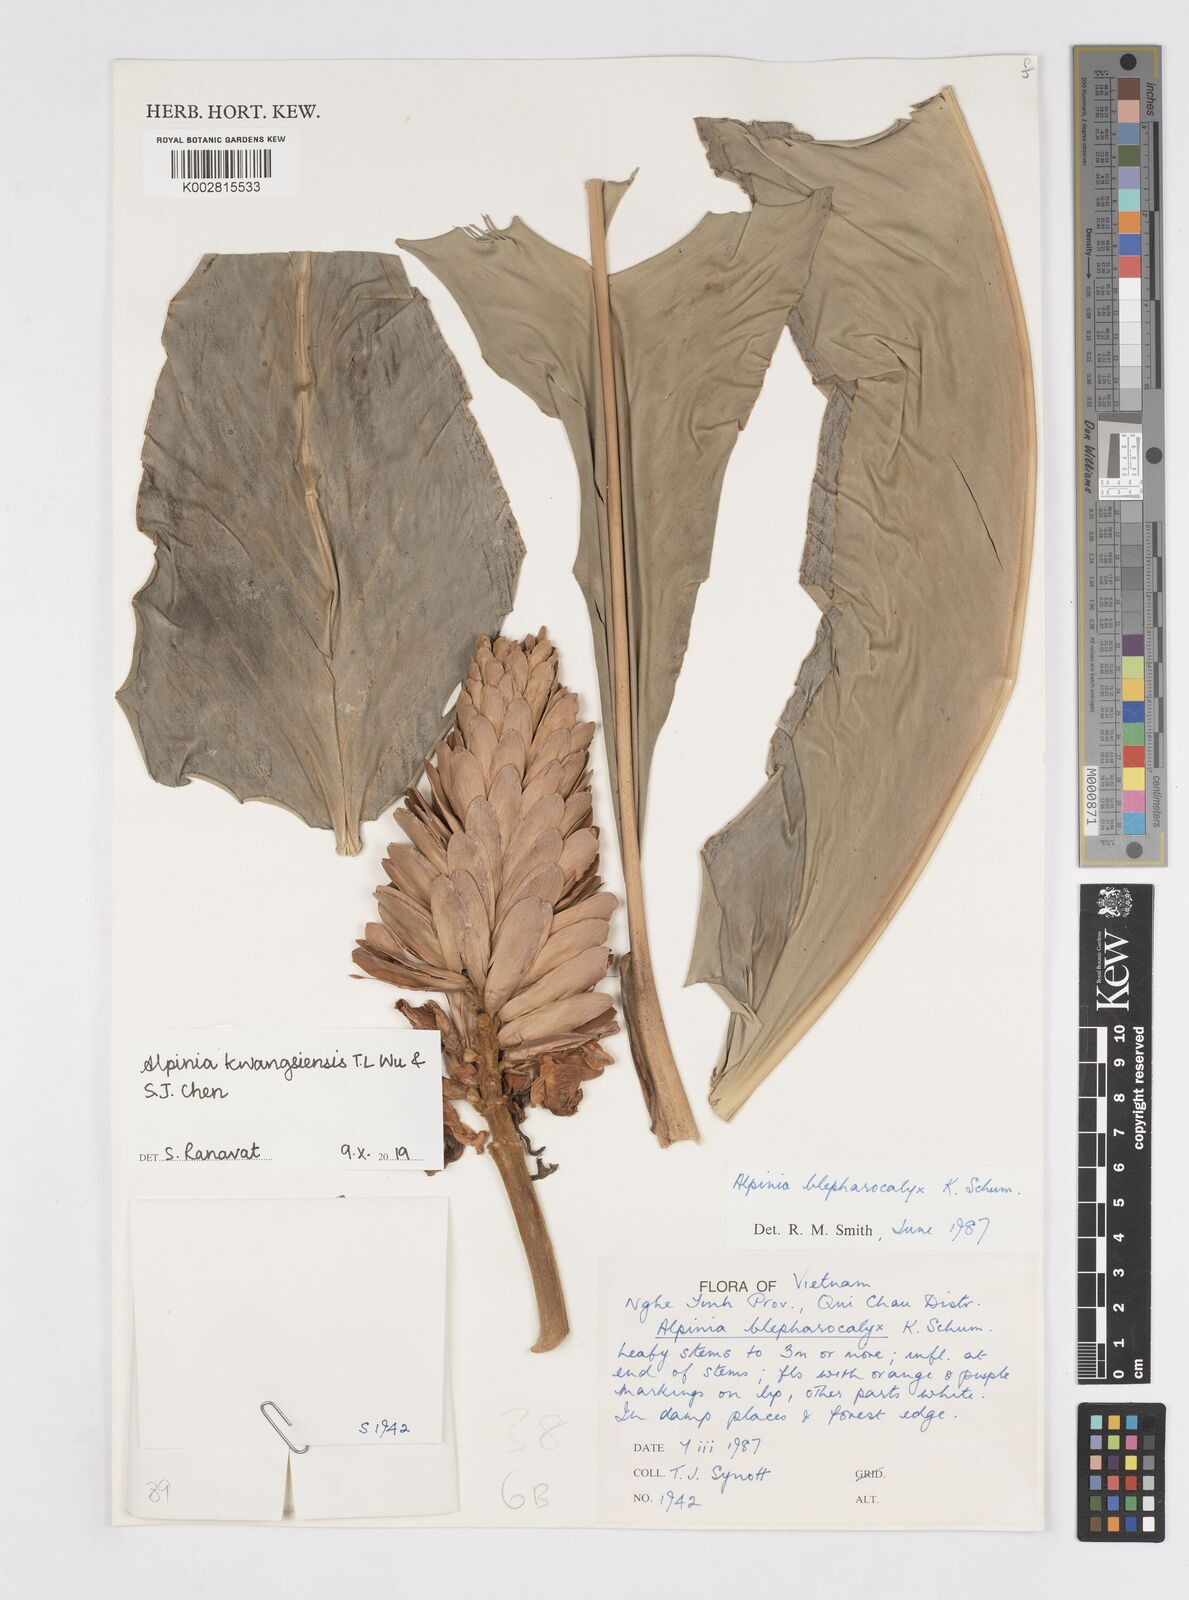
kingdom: Plantae
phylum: Tracheophyta
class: Liliopsida
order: Zingiberales
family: Zingiberaceae
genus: Alpinia
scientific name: Alpinia roxburghii
